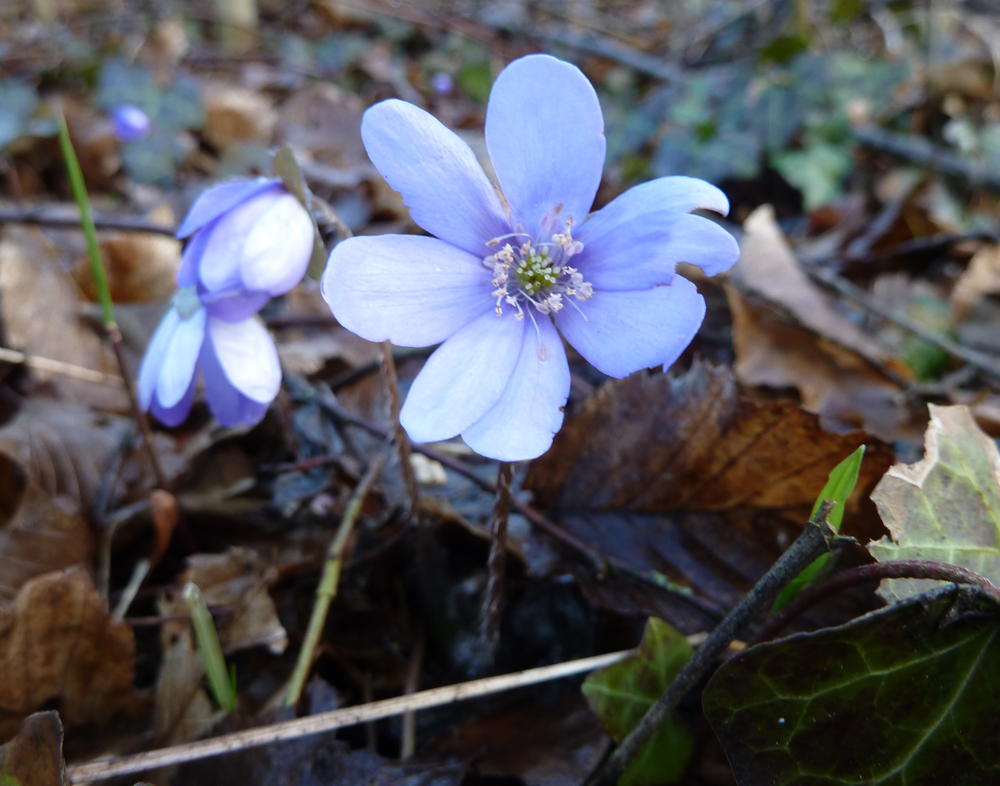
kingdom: Plantae
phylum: Tracheophyta
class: Magnoliopsida
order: Ranunculales
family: Ranunculaceae
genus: Hepatica
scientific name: Hepatica nobilis
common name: Liverleaf
